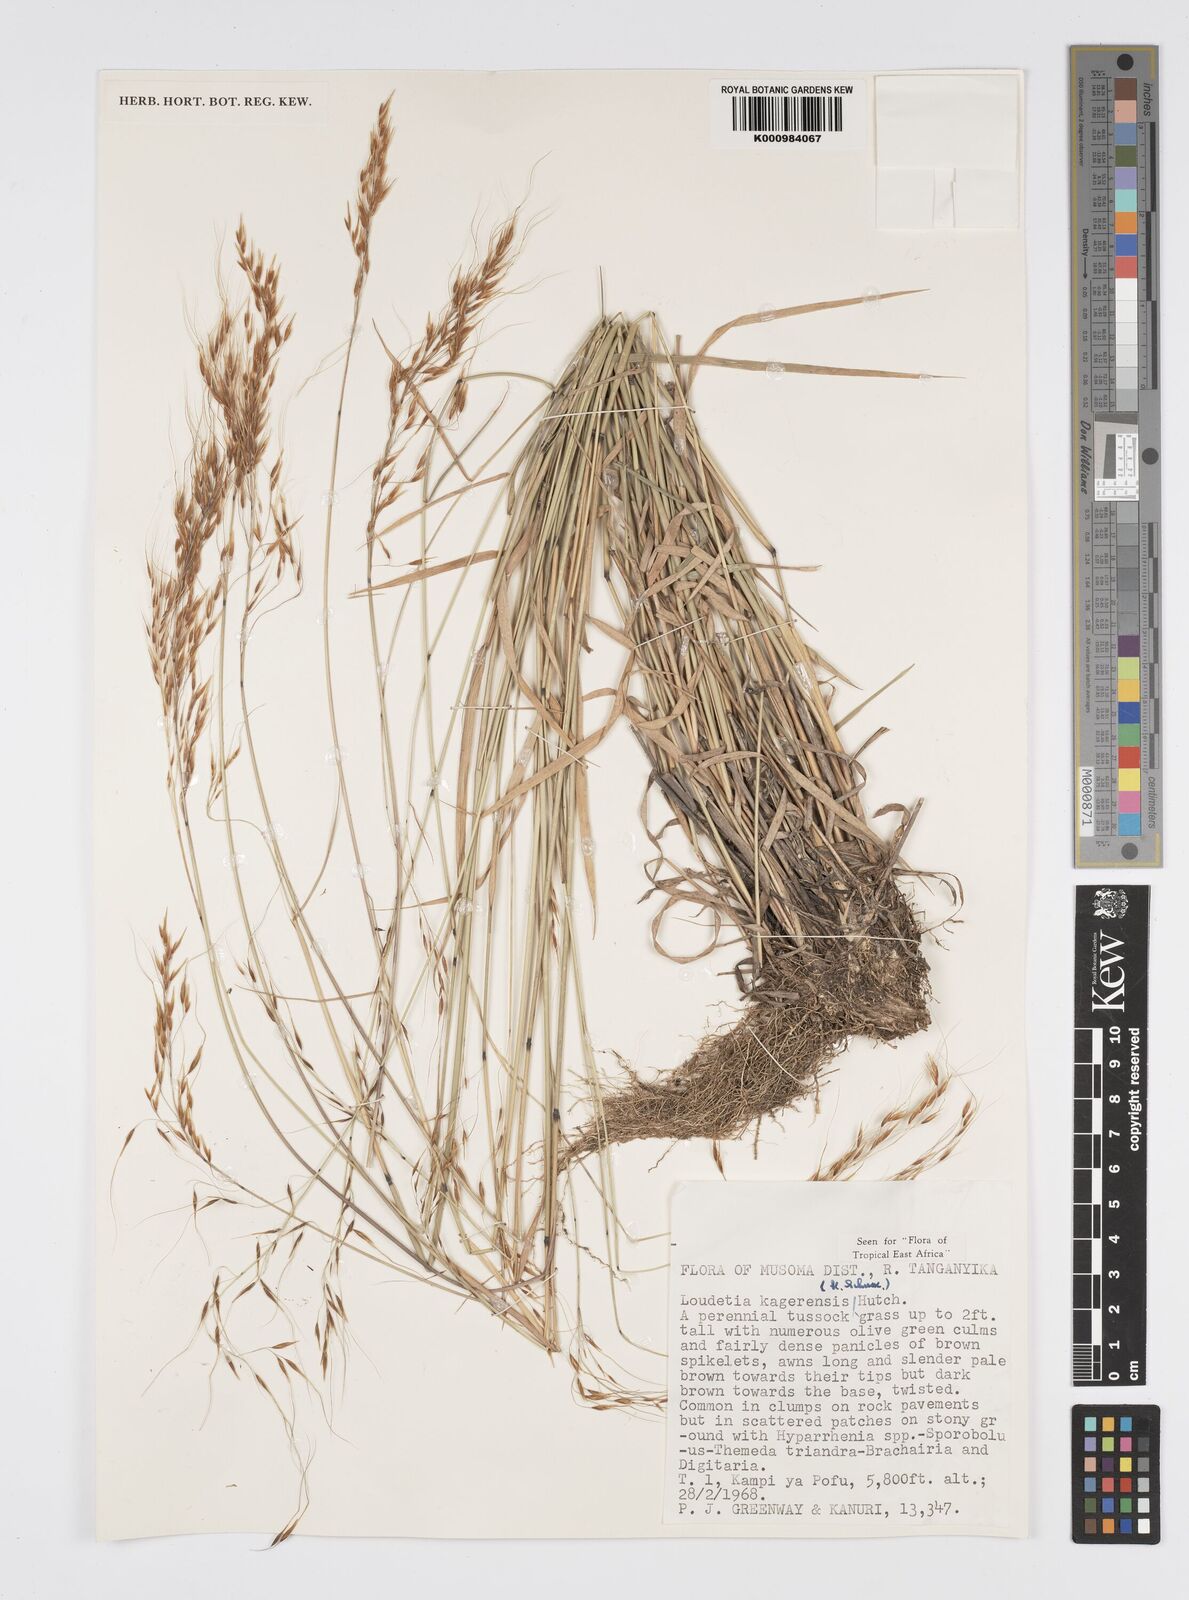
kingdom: Plantae
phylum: Tracheophyta
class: Liliopsida
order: Poales
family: Poaceae
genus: Loudetia
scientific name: Loudetia kagerensis
